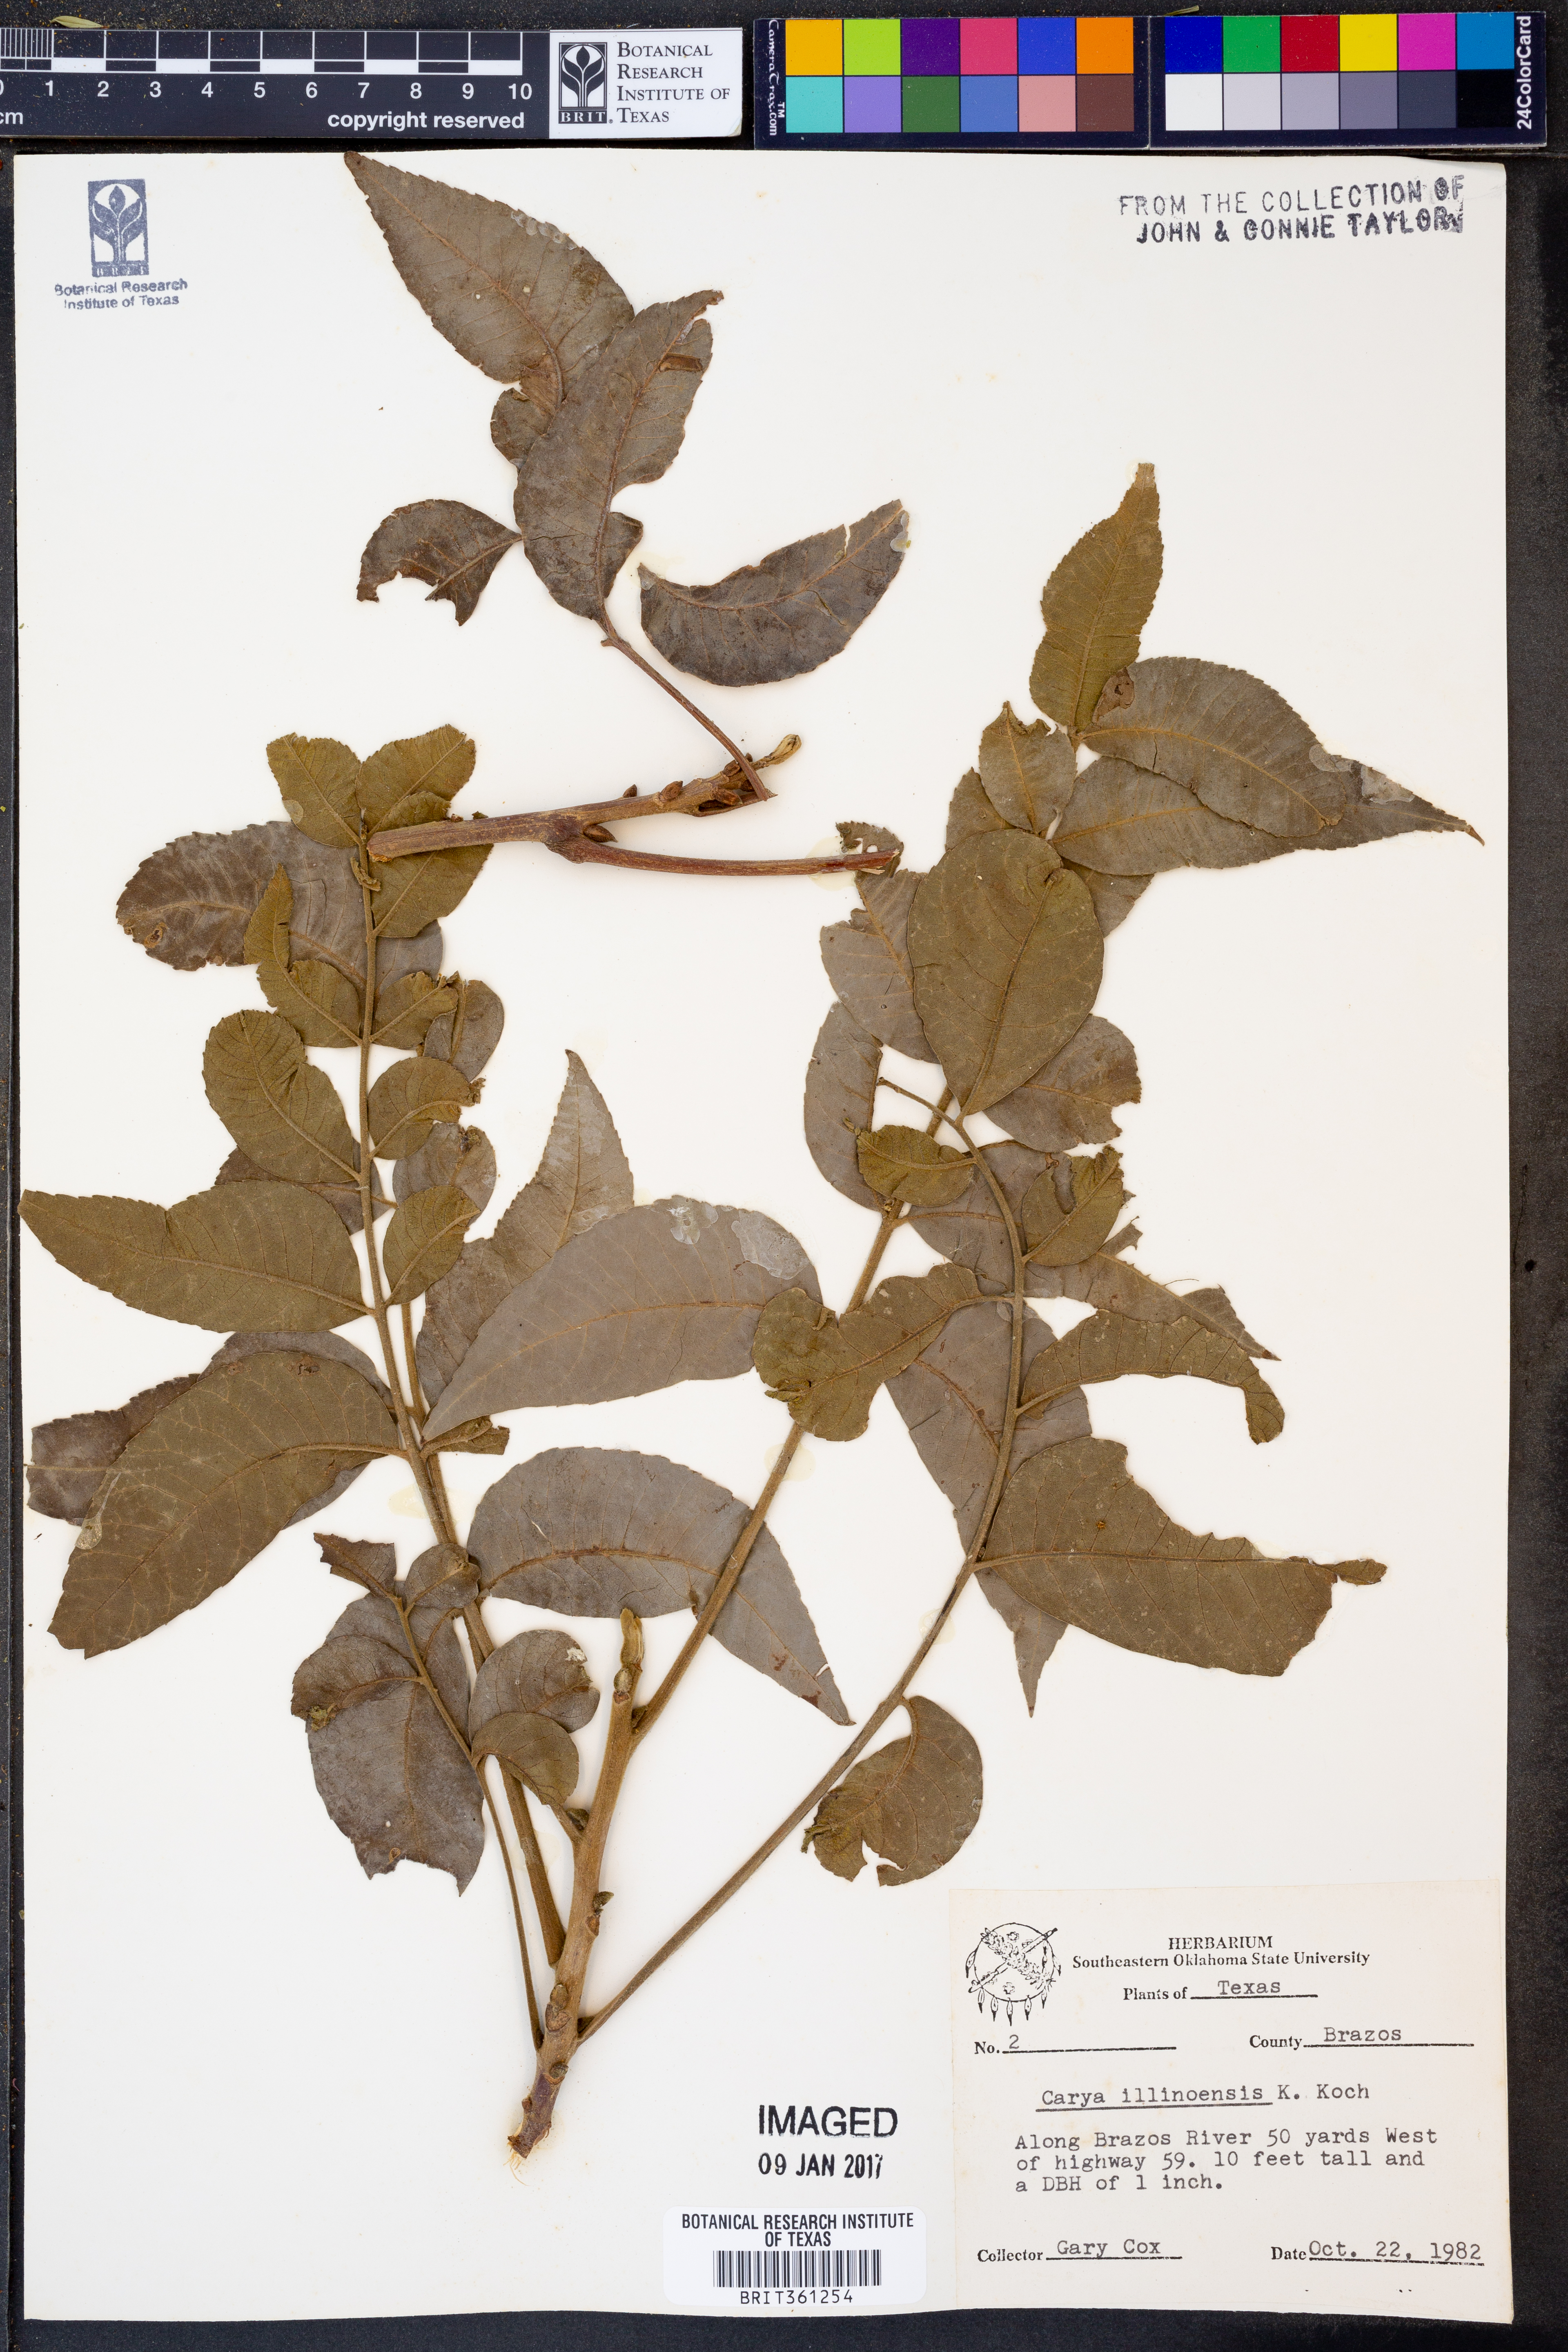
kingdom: Plantae
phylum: Tracheophyta
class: Magnoliopsida
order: Fagales
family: Juglandaceae
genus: Carya
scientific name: Carya illinoinensis
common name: Pecan
